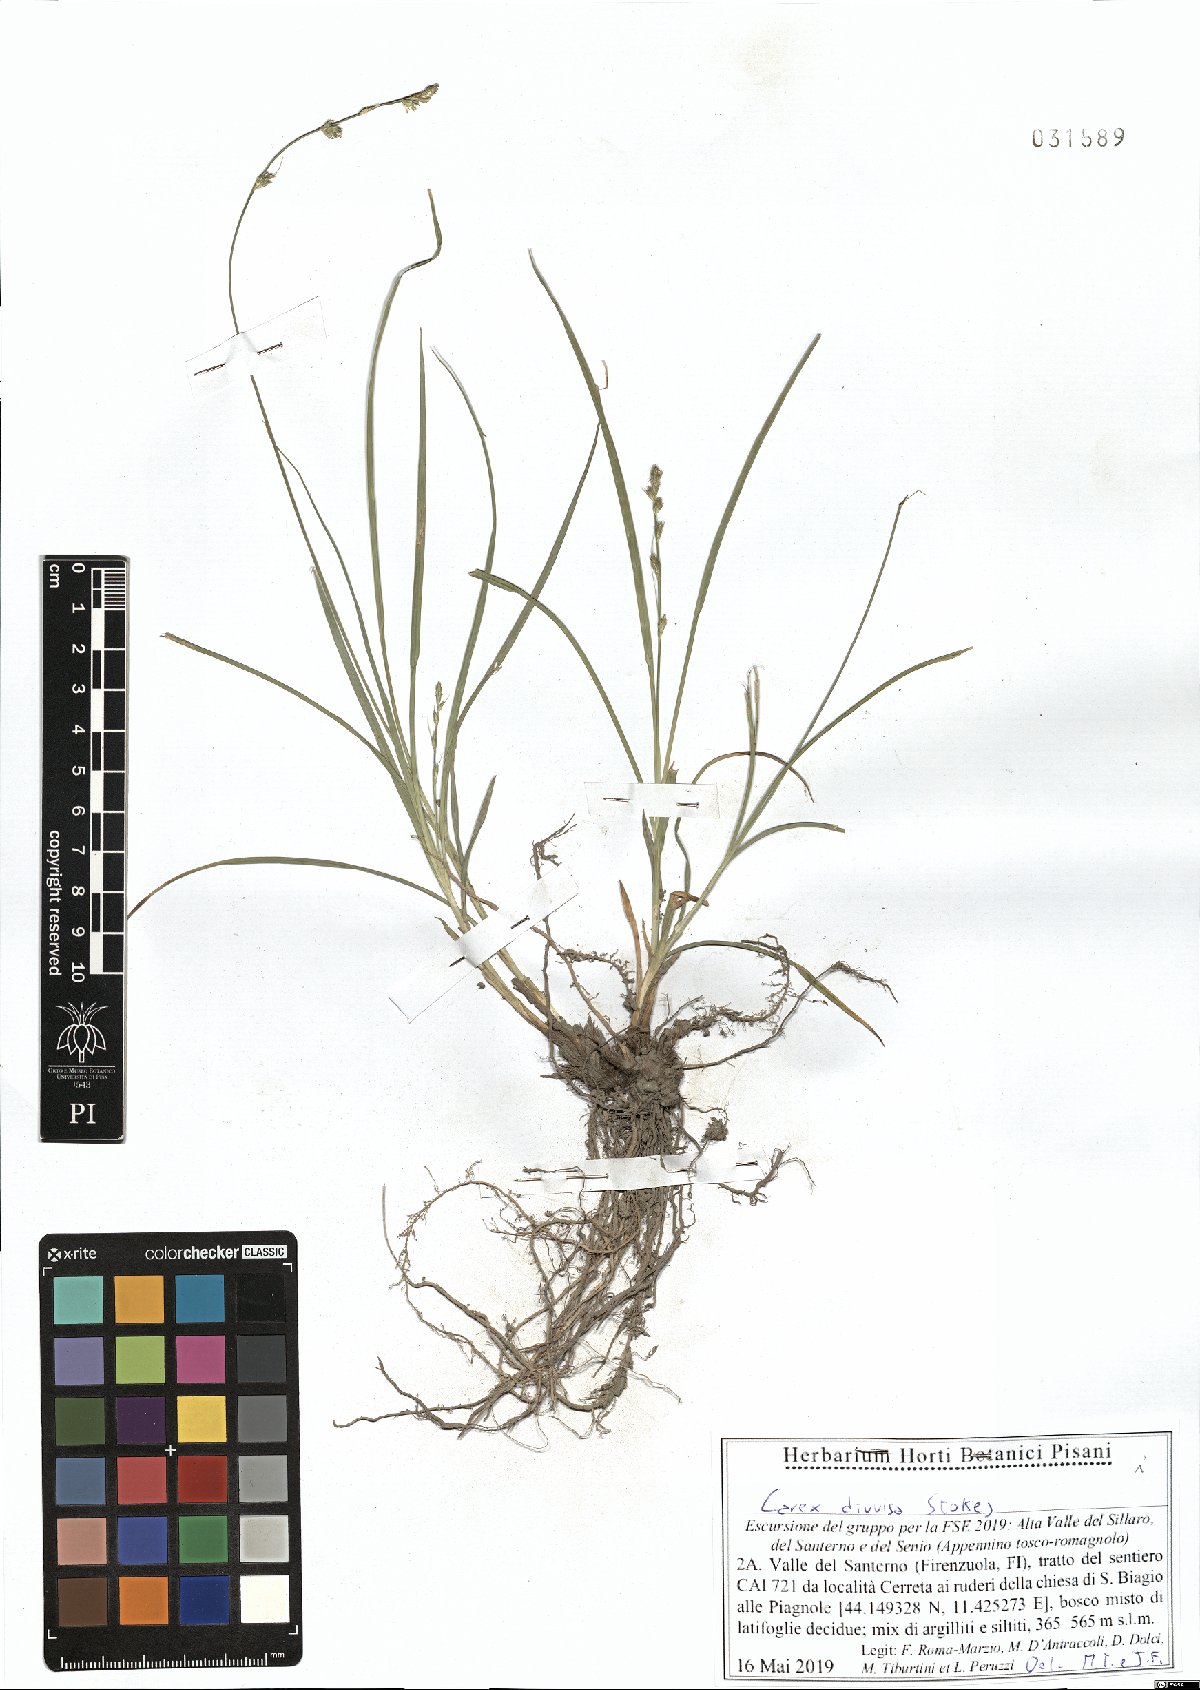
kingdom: Plantae
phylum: Tracheophyta
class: Liliopsida
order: Poales
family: Cyperaceae
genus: Carex
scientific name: Carex divulsa
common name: Grassland sedge
